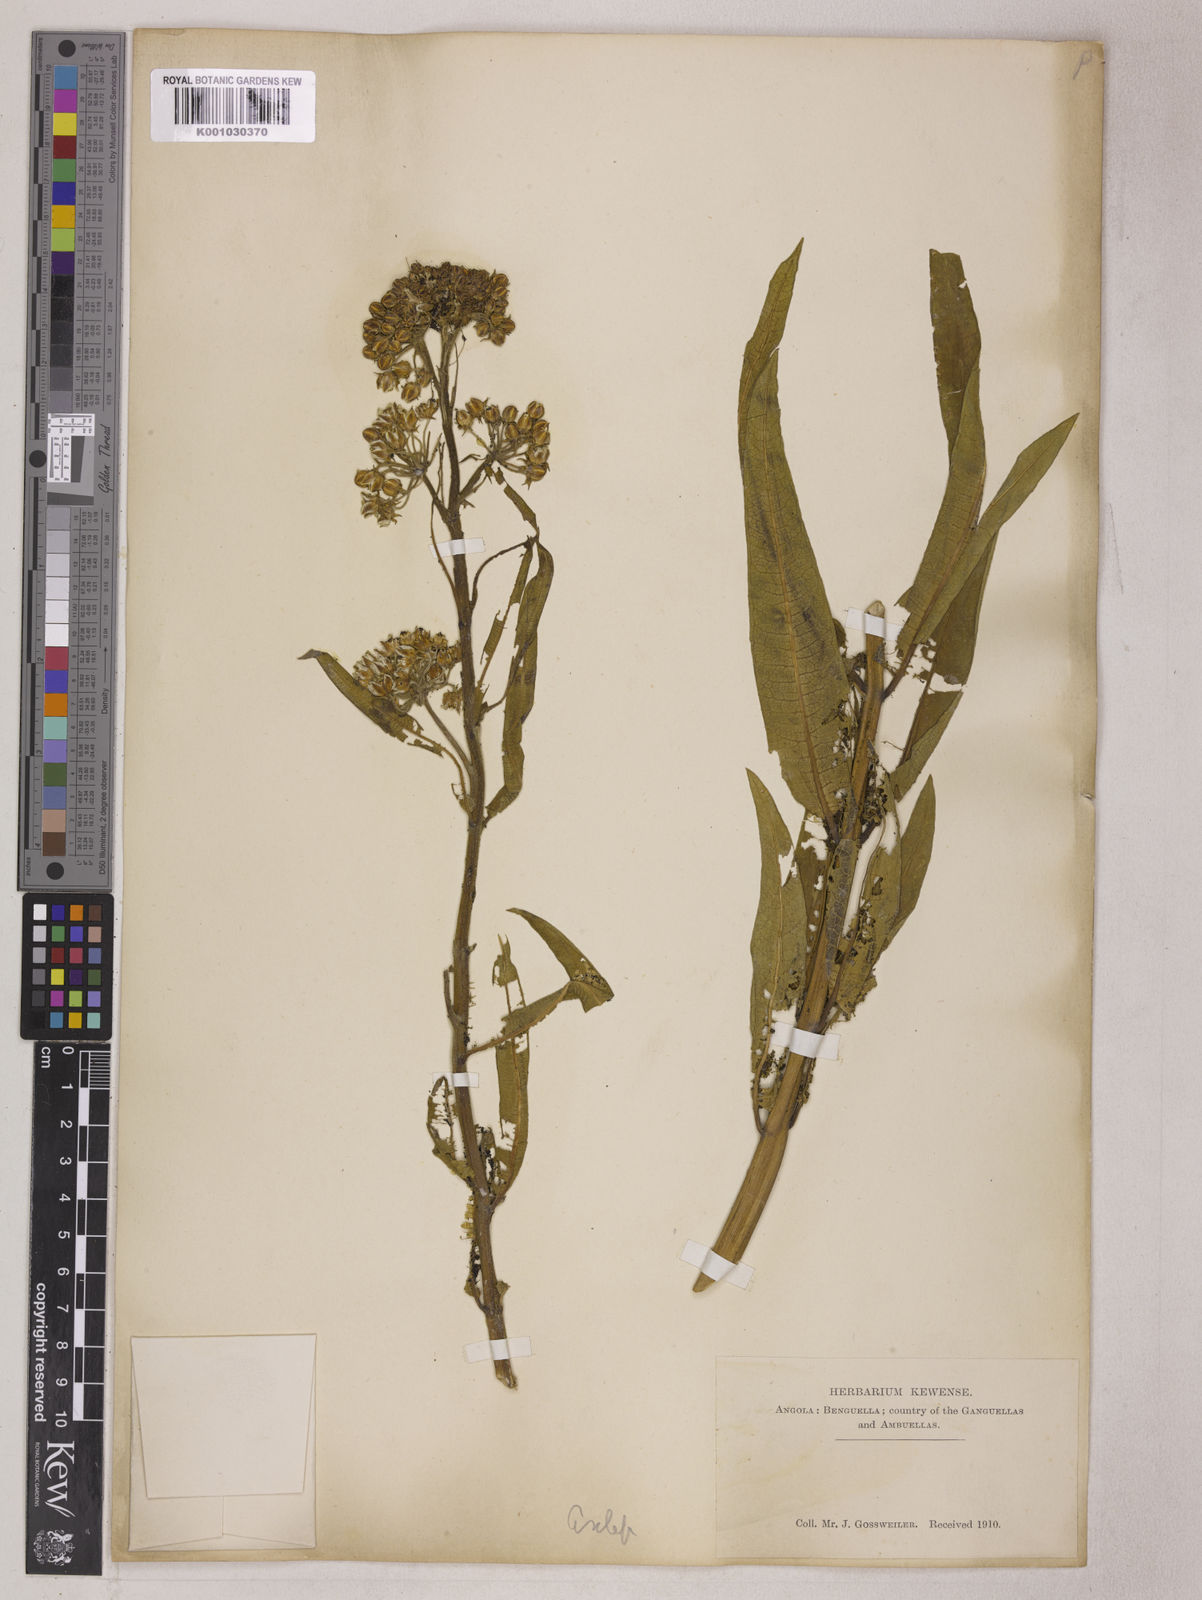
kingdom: Plantae
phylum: Tracheophyta
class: Magnoliopsida
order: Gentianales
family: Apocynaceae
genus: Xysmalobium
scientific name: Xysmalobium undulatum
